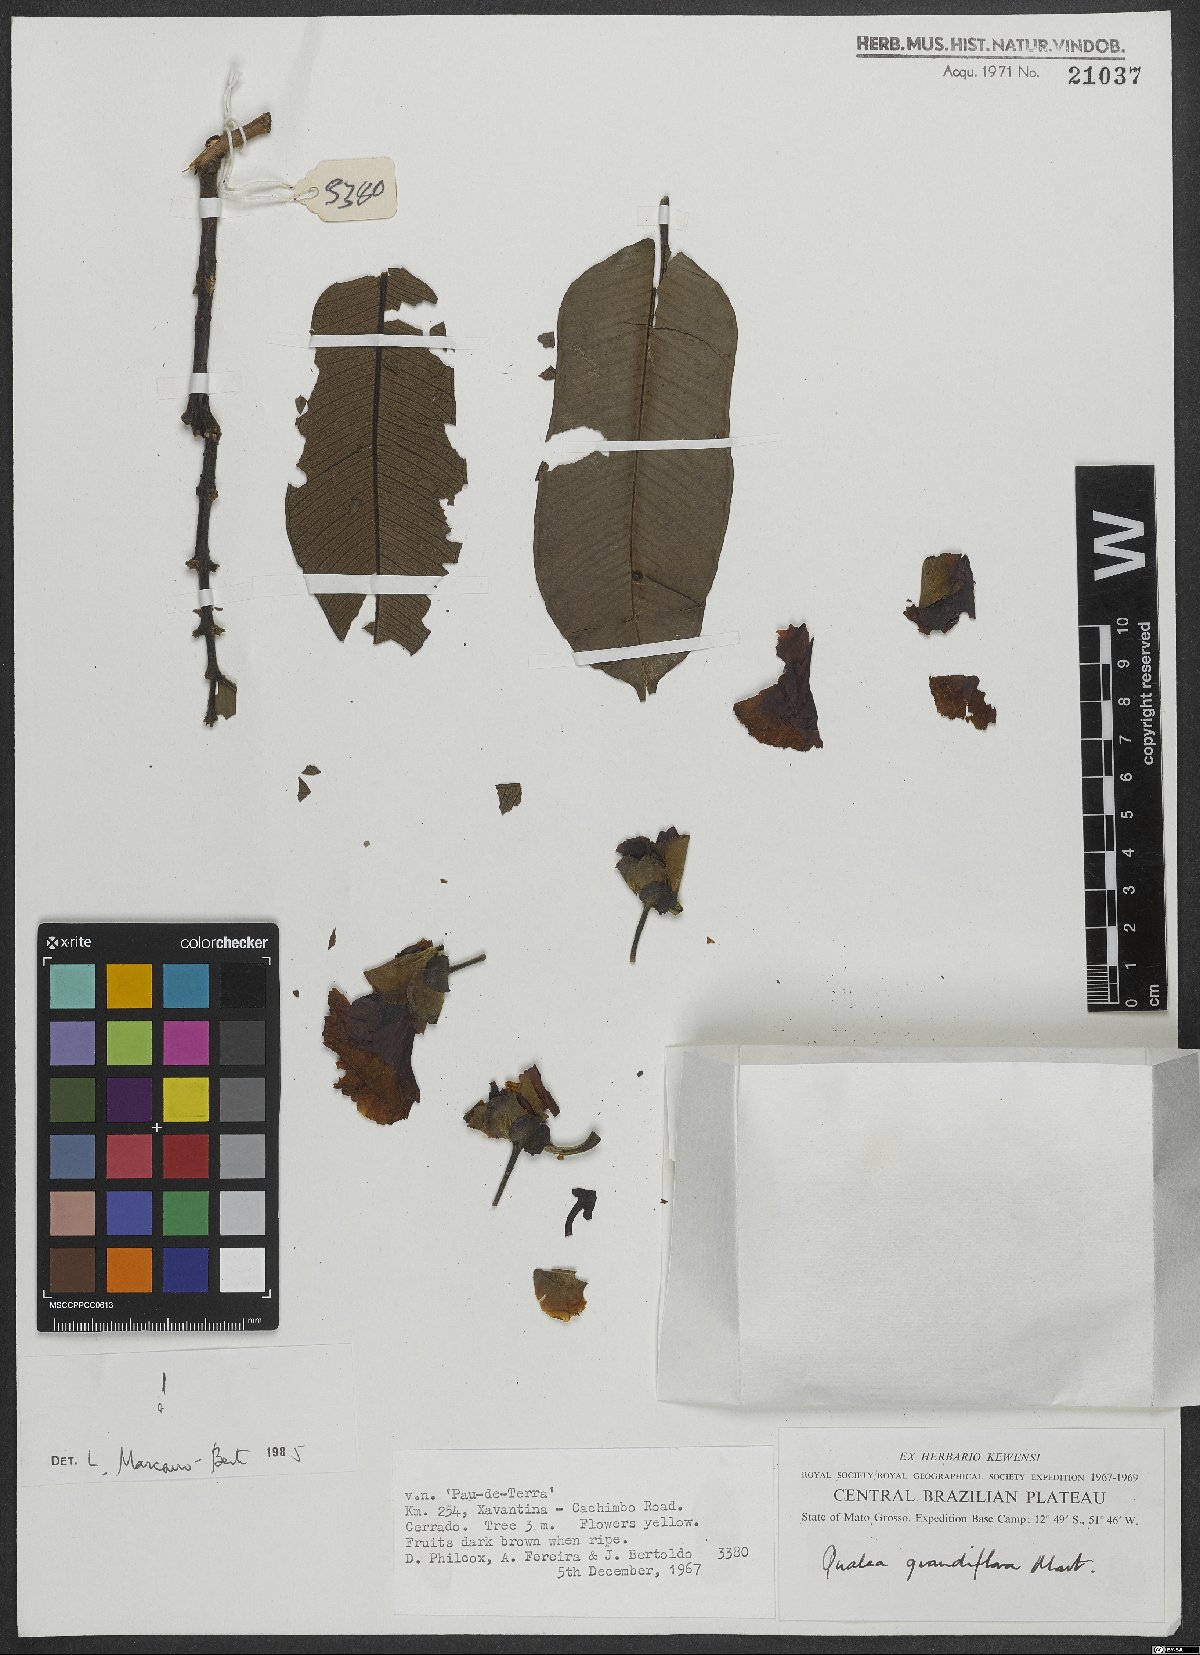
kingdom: Plantae
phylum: Tracheophyta
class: Magnoliopsida
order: Myrtales
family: Vochysiaceae
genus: Qualea
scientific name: Qualea grandiflora
